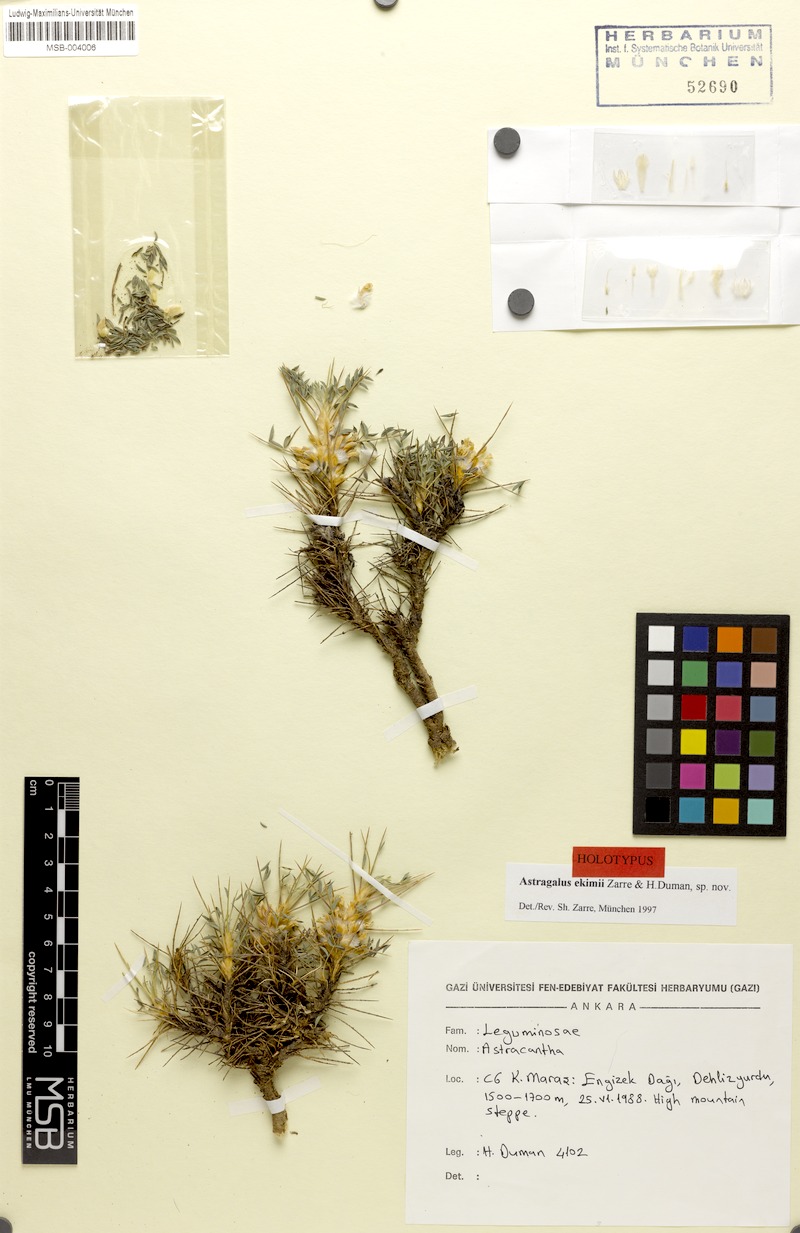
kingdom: Plantae
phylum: Tracheophyta
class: Magnoliopsida
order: Fabales
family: Fabaceae
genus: Astragalus
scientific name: Astragalus ekimii
